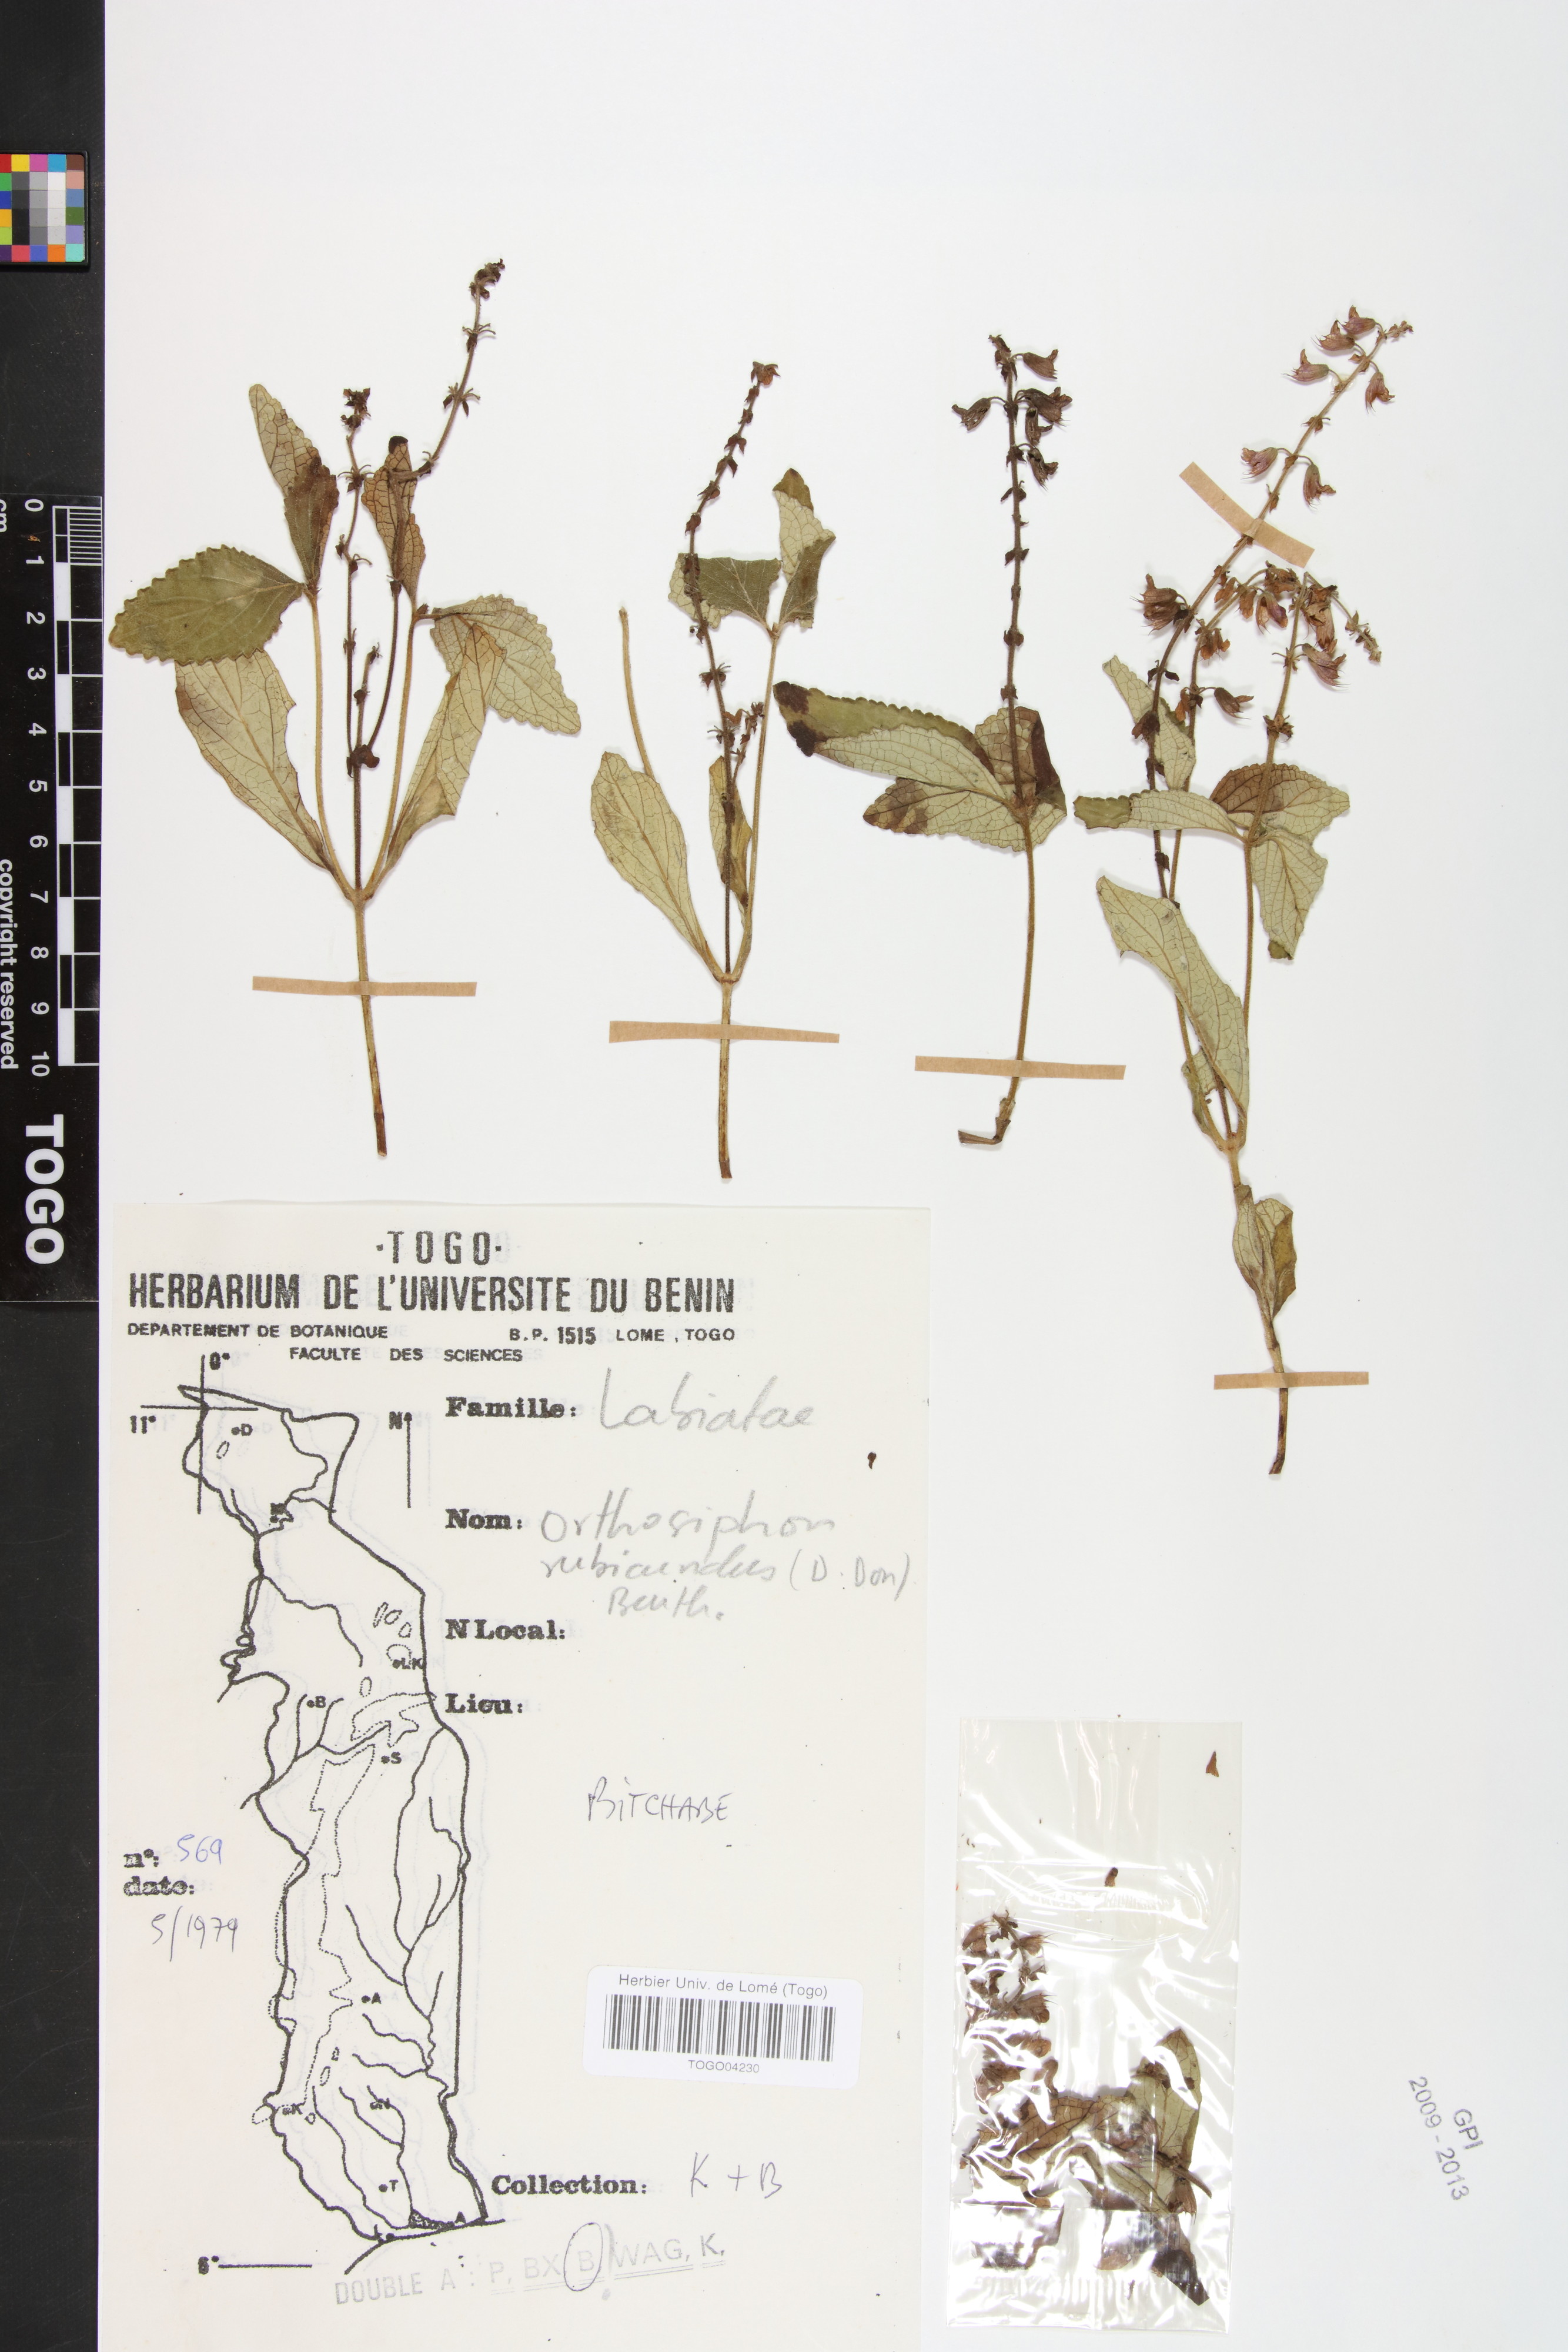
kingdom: Plantae
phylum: Tracheophyta
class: Magnoliopsida
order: Lamiales
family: Lamiaceae
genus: Orthosiphon
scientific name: Orthosiphon rubicundus
